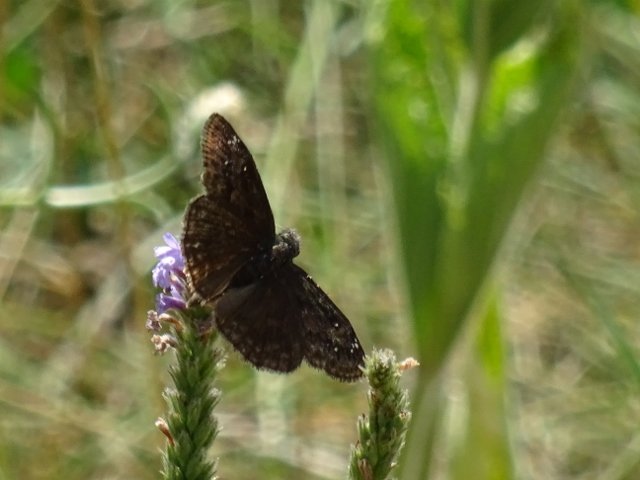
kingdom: Animalia
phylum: Arthropoda
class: Insecta
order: Lepidoptera
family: Hesperiidae
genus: Gesta
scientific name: Gesta
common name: Wild Indigo Duskywing
